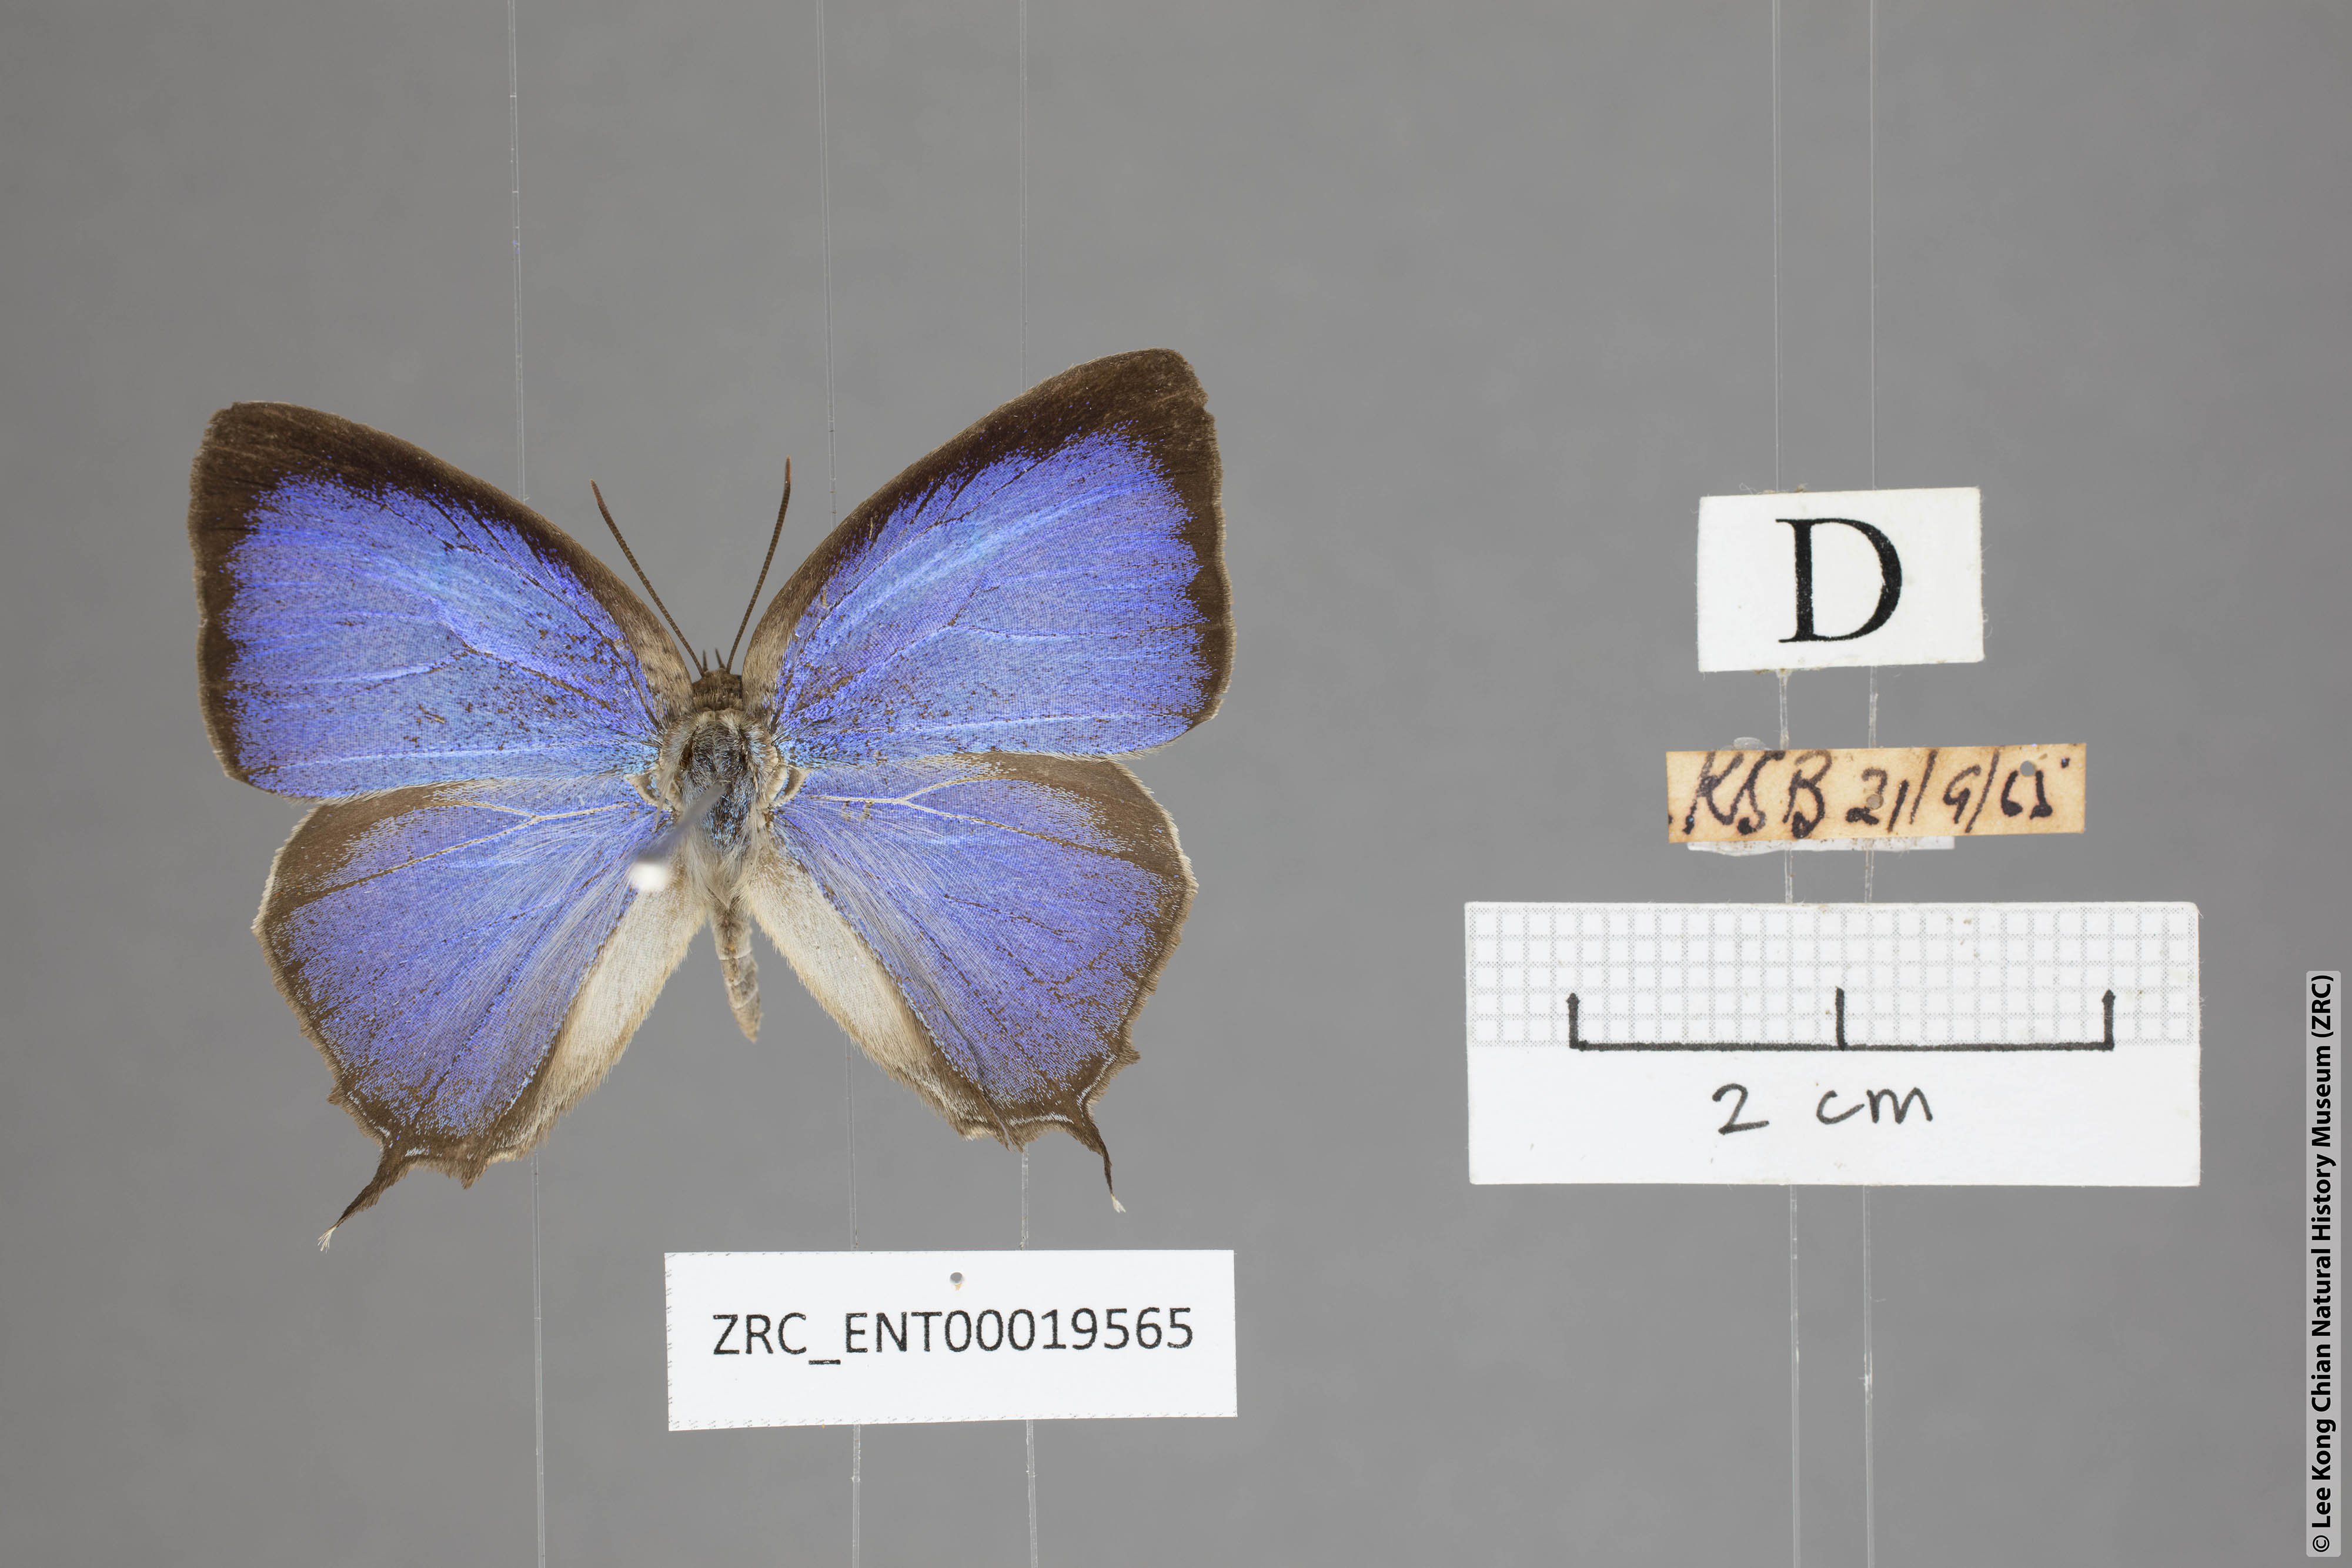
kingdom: Animalia
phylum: Arthropoda
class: Insecta
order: Lepidoptera
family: Lycaenidae
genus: Arhopala
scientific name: Arhopala ijauensis
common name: White-banded oakblue
